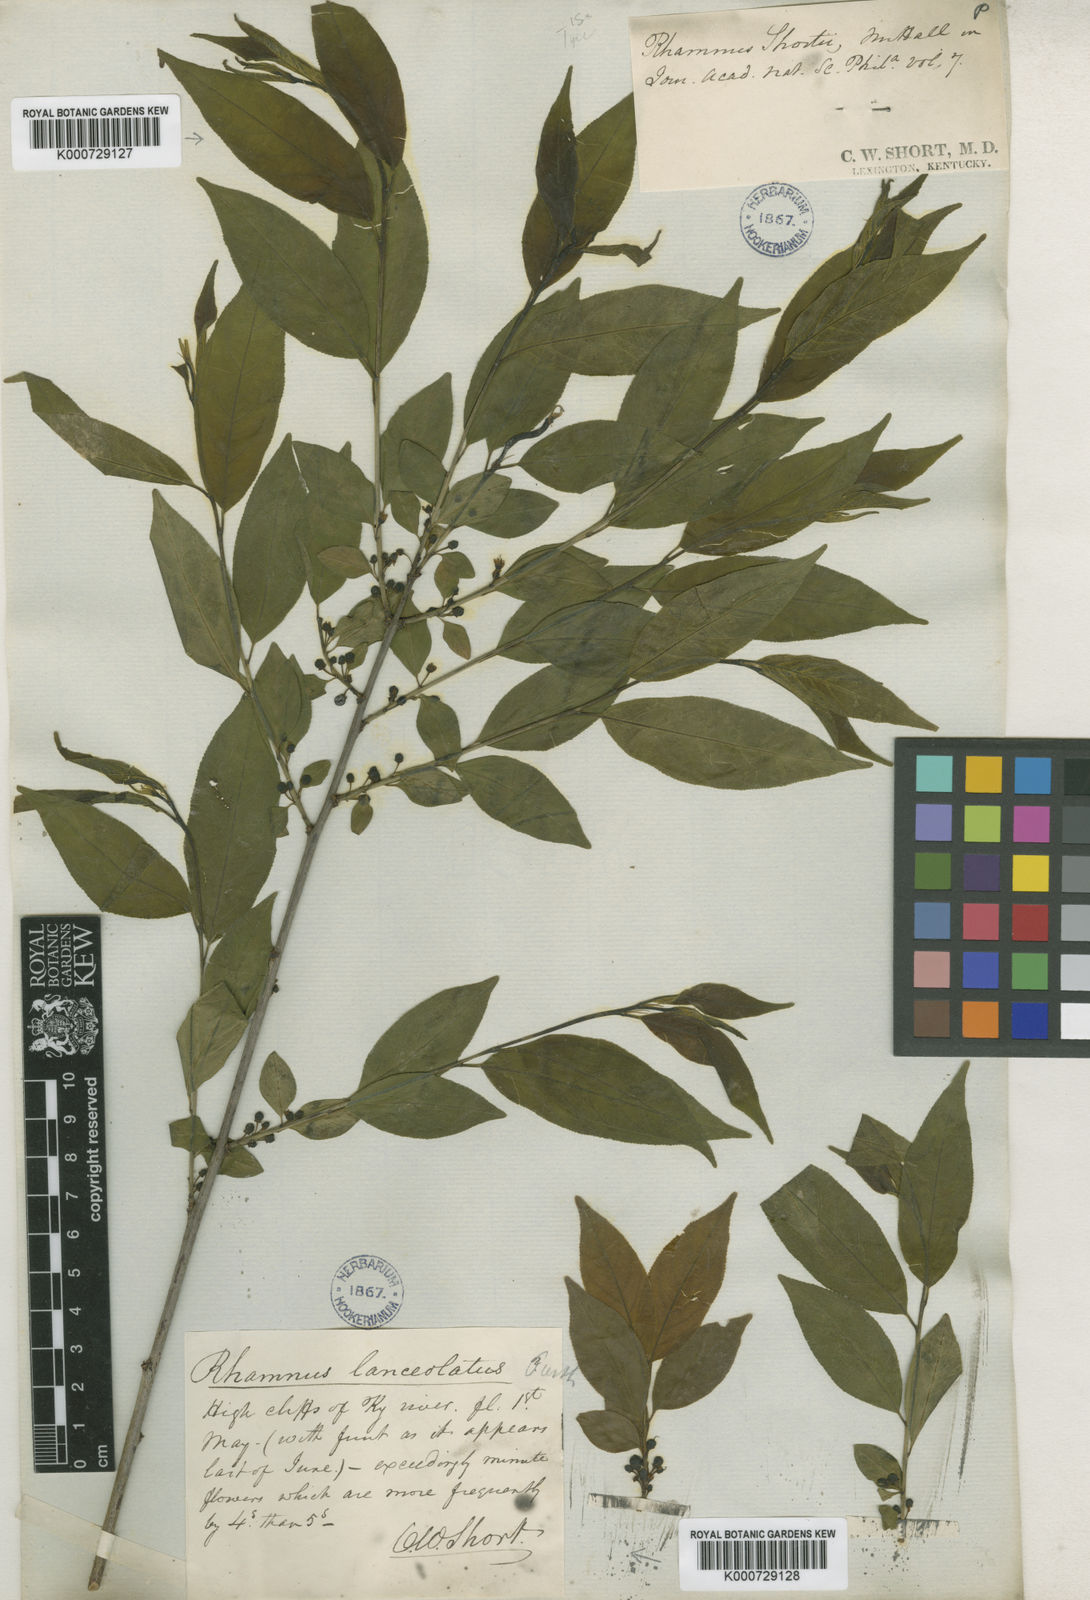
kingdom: Plantae
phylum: Tracheophyta
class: Magnoliopsida
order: Rosales
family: Rhamnaceae
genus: Endotropis
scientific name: Endotropis lanceolata
